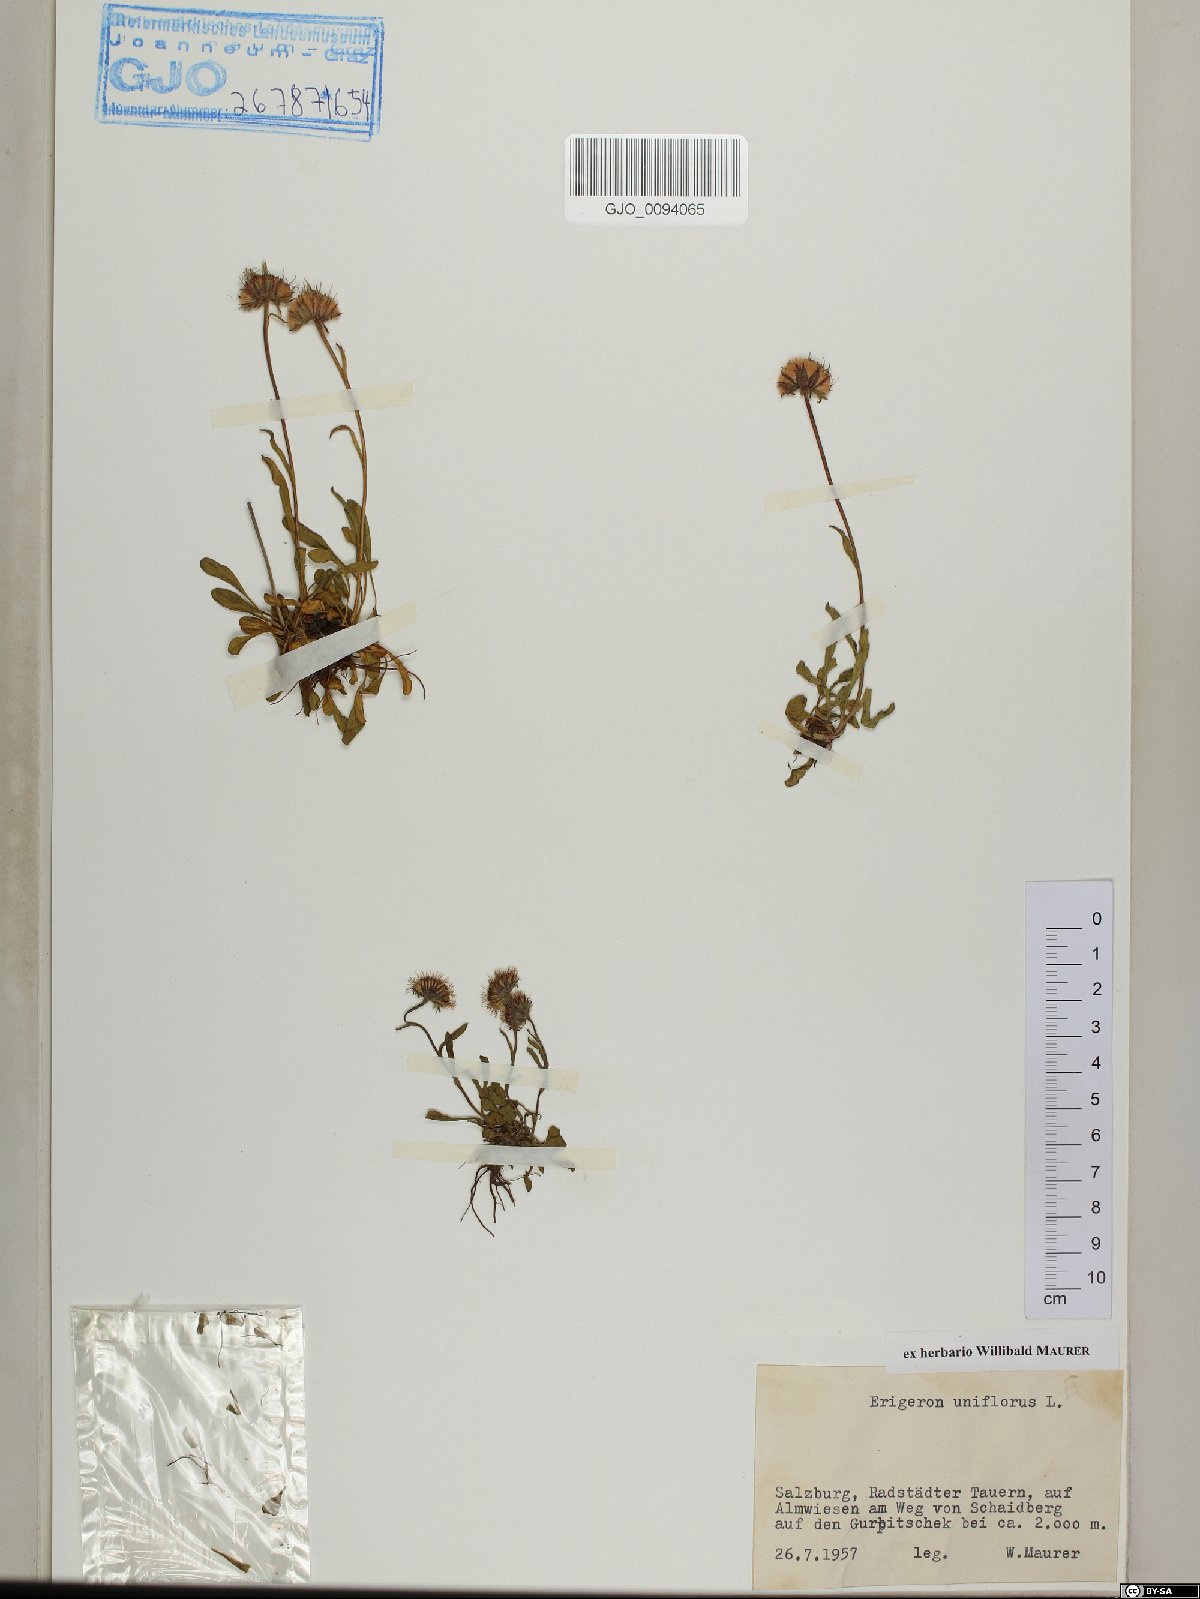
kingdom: Plantae
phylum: Tracheophyta
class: Magnoliopsida
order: Asterales
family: Asteraceae
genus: Erigeron
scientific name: Erigeron uniflorus
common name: Northern daisy
